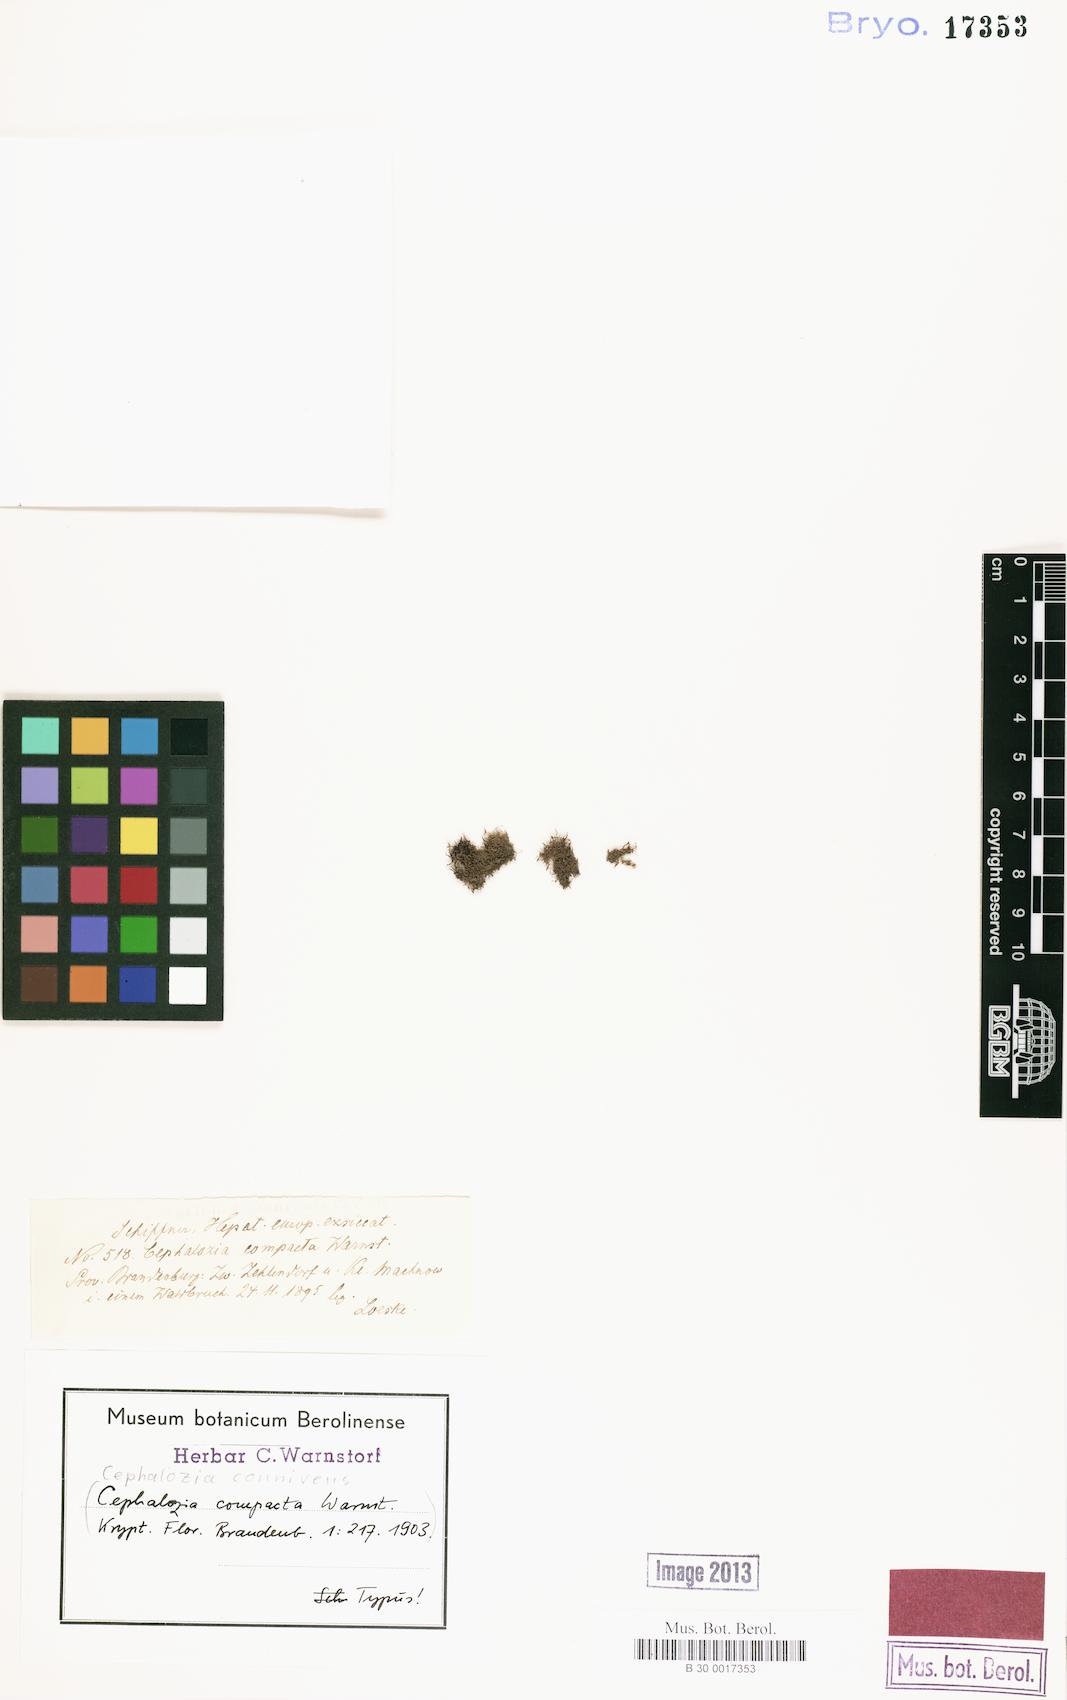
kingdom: Plantae
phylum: Marchantiophyta
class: Jungermanniopsida
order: Jungermanniales
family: Cephaloziaceae
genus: Fuscocephaloziopsis
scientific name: Fuscocephaloziopsis connivens
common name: Forcipated pincerwort
